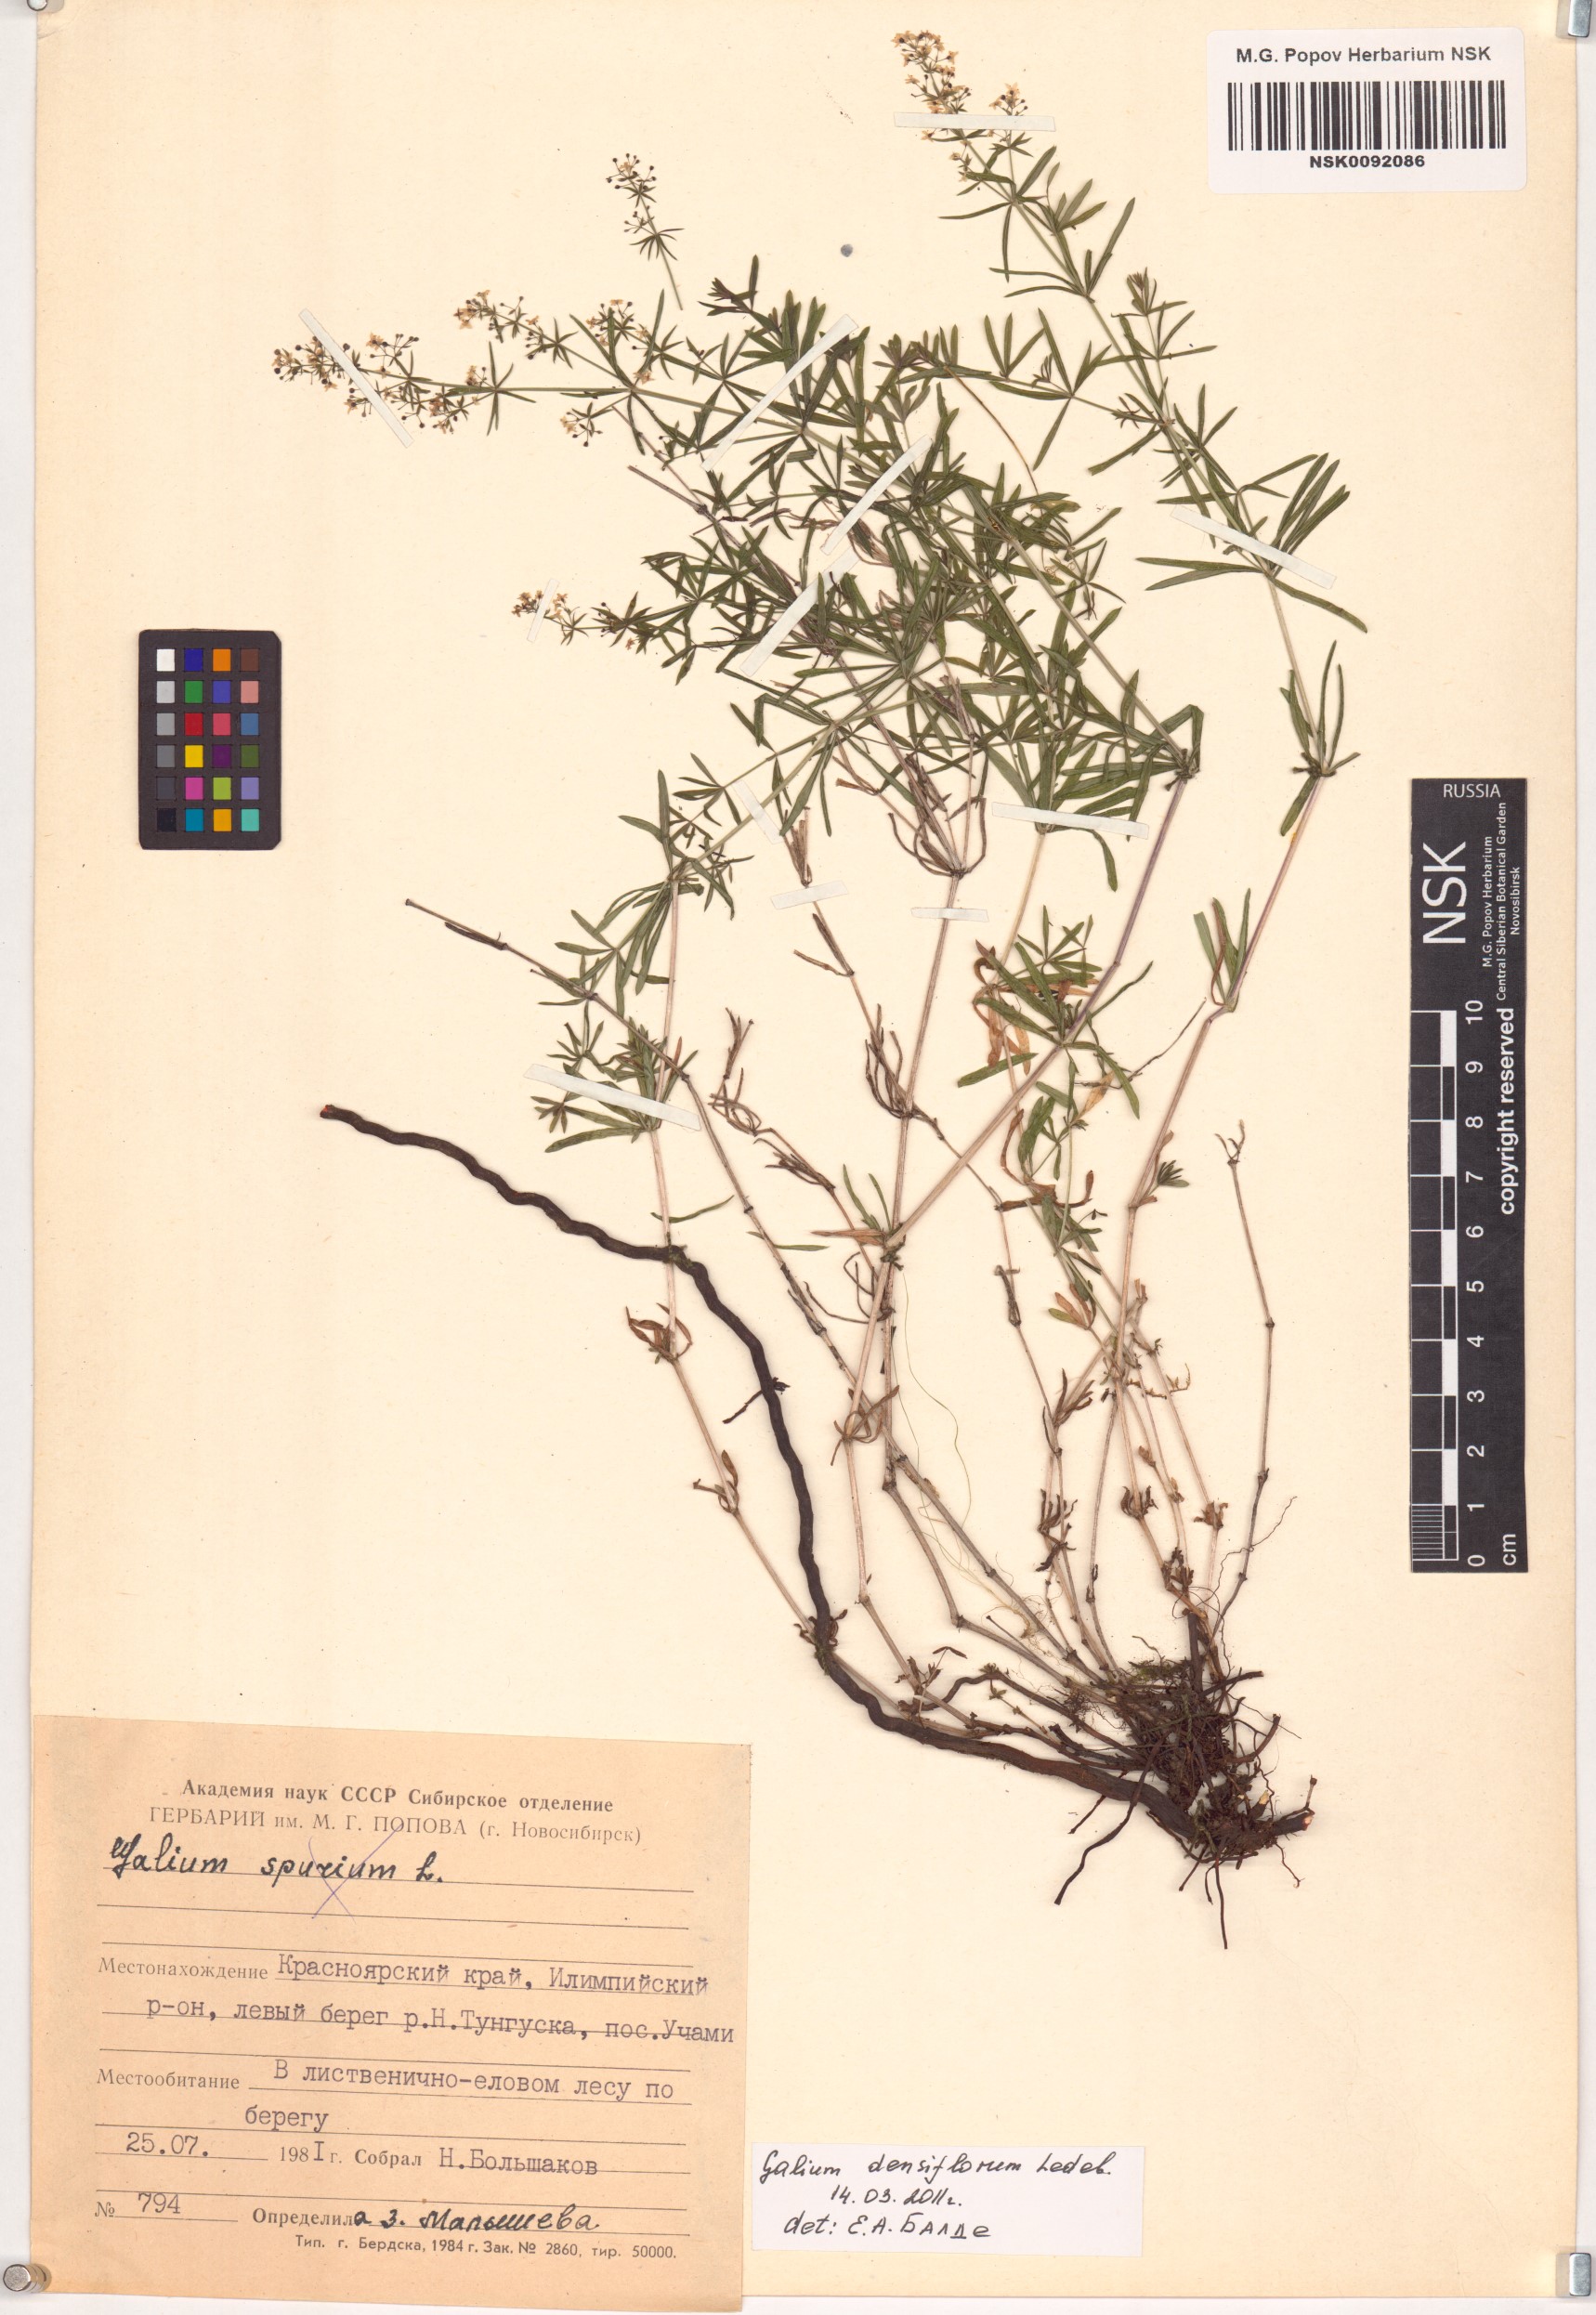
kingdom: Plantae
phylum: Tracheophyta
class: Magnoliopsida
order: Gentianales
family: Rubiaceae
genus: Galium
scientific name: Galium densiflorum
